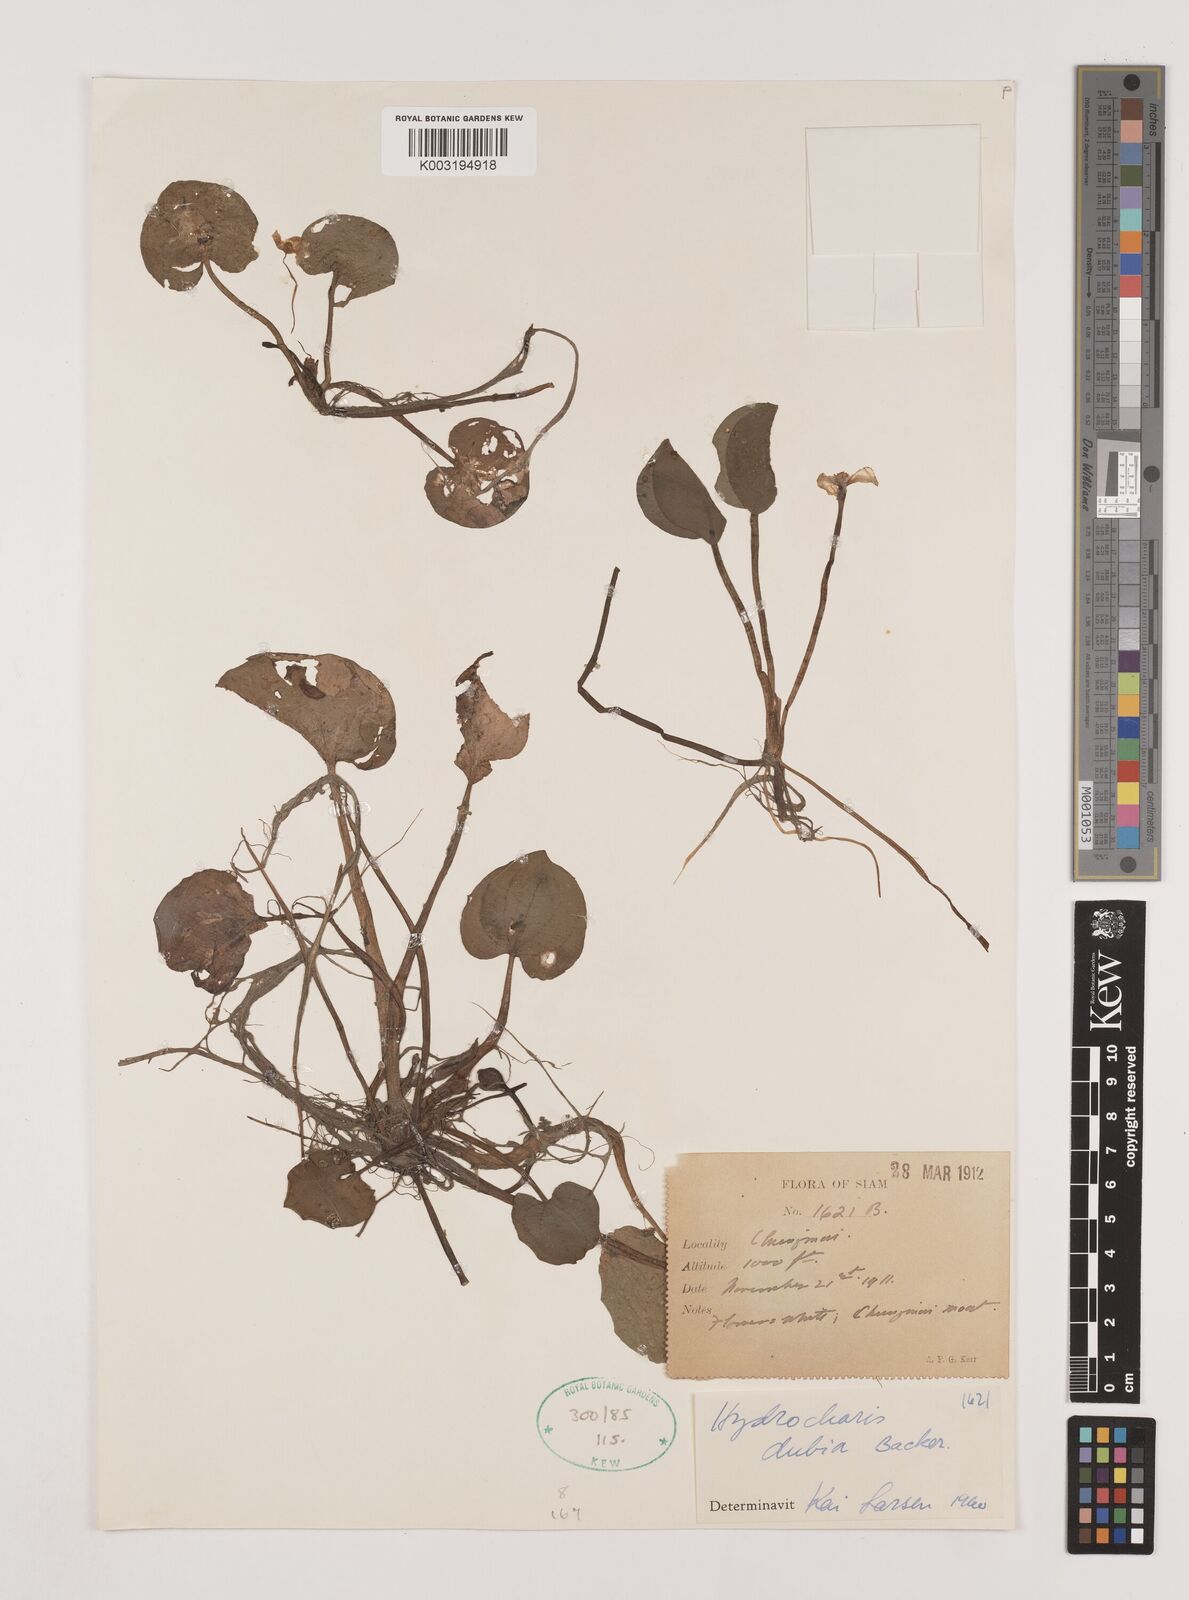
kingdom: Plantae
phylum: Tracheophyta
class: Liliopsida
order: Alismatales
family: Hydrocharitaceae
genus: Hydrocharis
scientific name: Hydrocharis dubia
